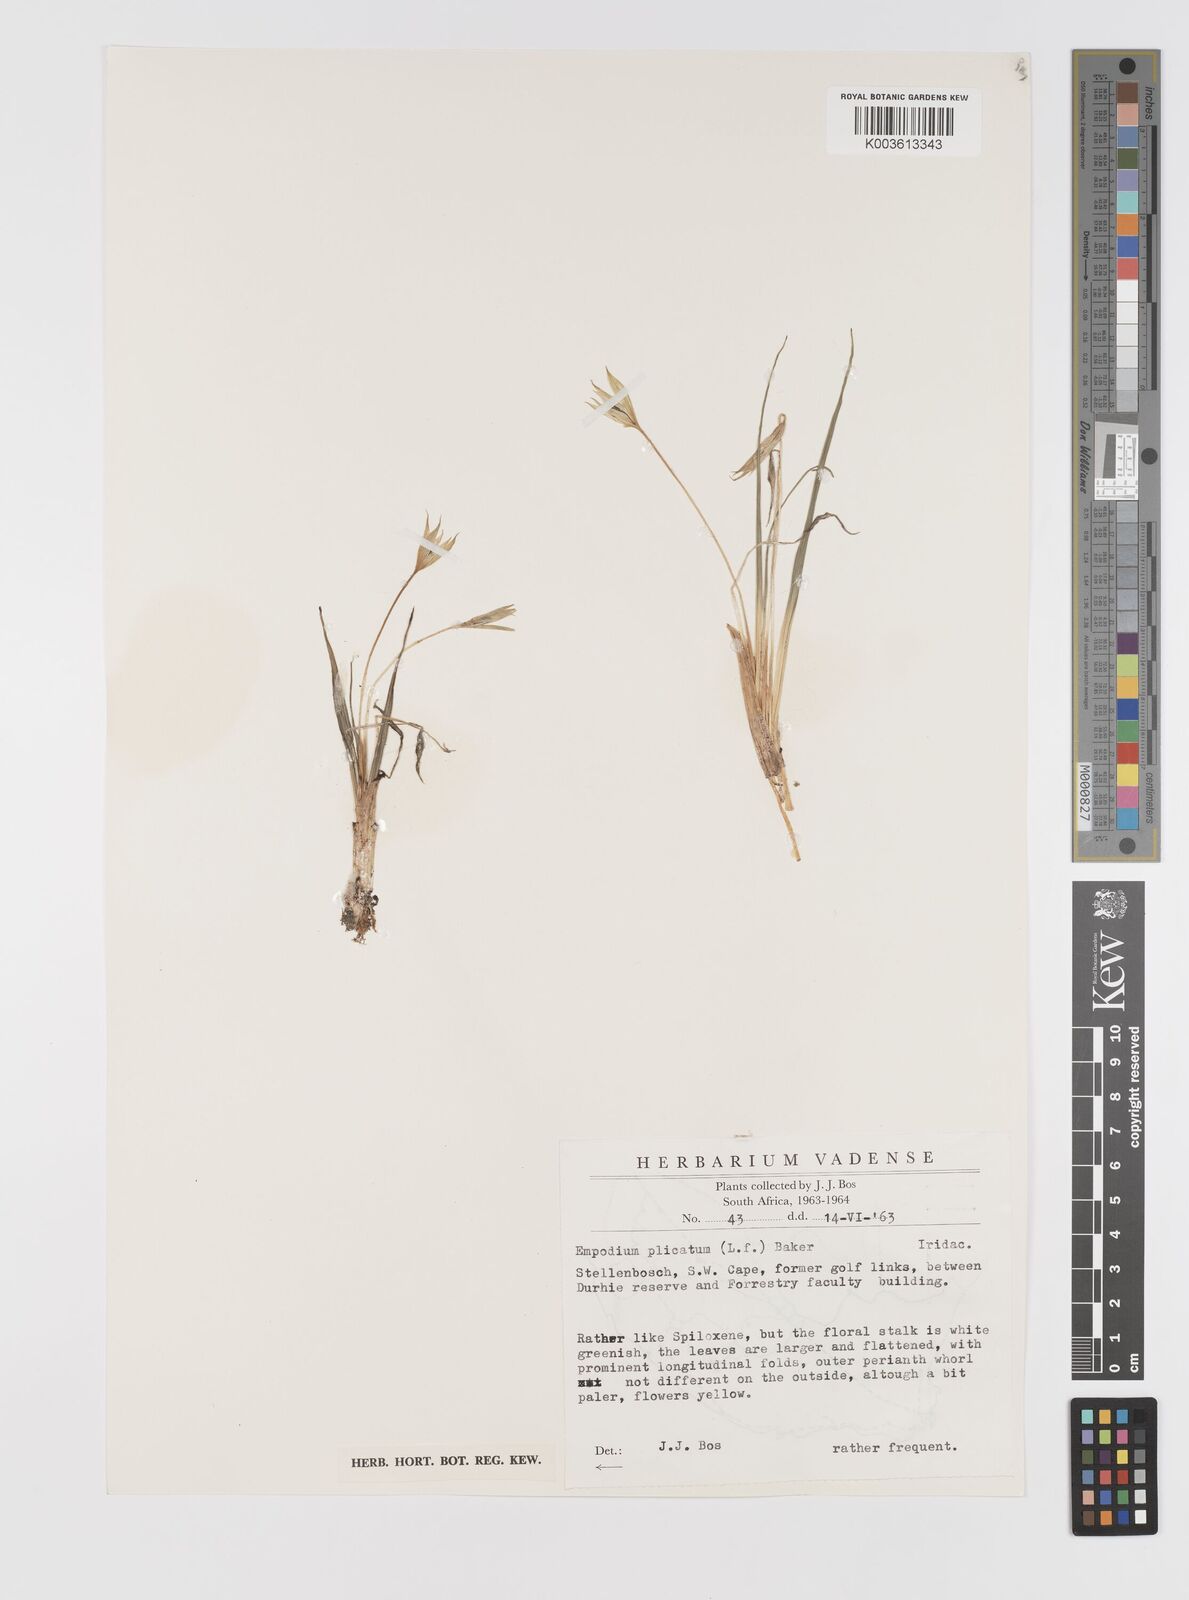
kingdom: Plantae
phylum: Tracheophyta
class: Liliopsida
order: Asparagales
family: Hypoxidaceae
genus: Empodium
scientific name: Empodium plicatum
